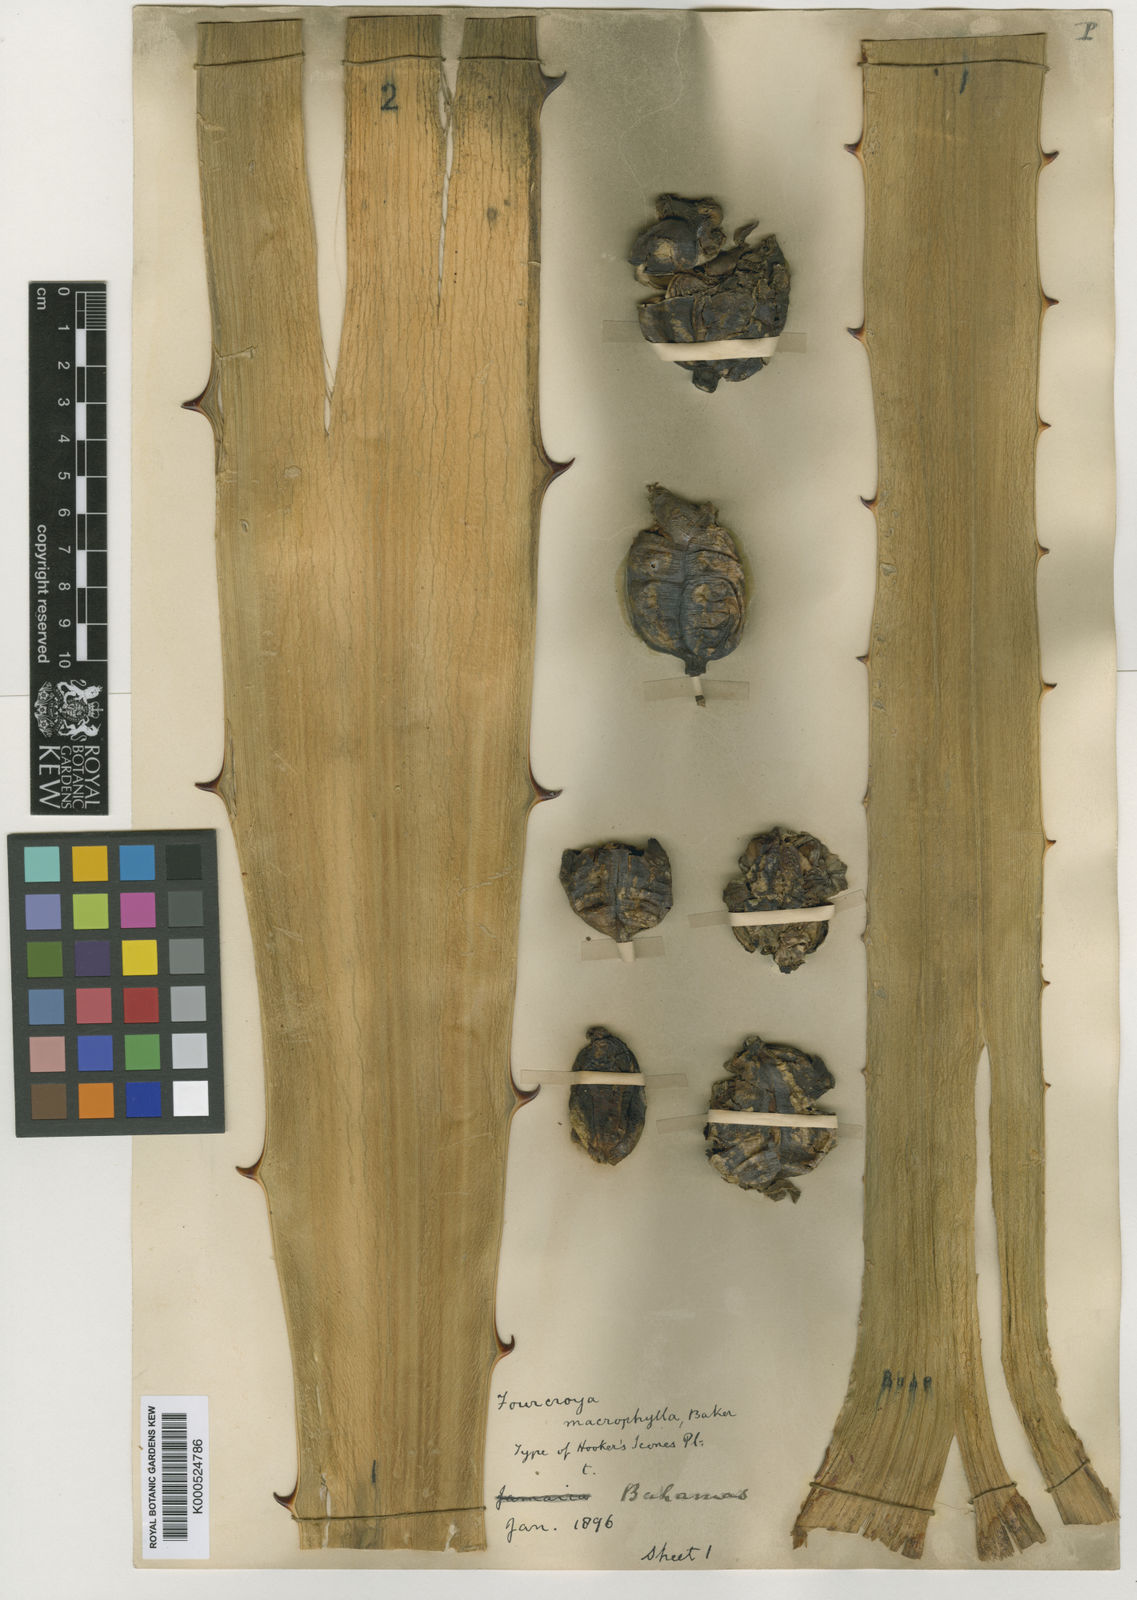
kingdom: Plantae
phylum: Tracheophyta
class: Liliopsida
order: Asparagales
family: Asparagaceae
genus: Furcraea
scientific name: Furcraea hexapetala
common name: Cuban-hemp
